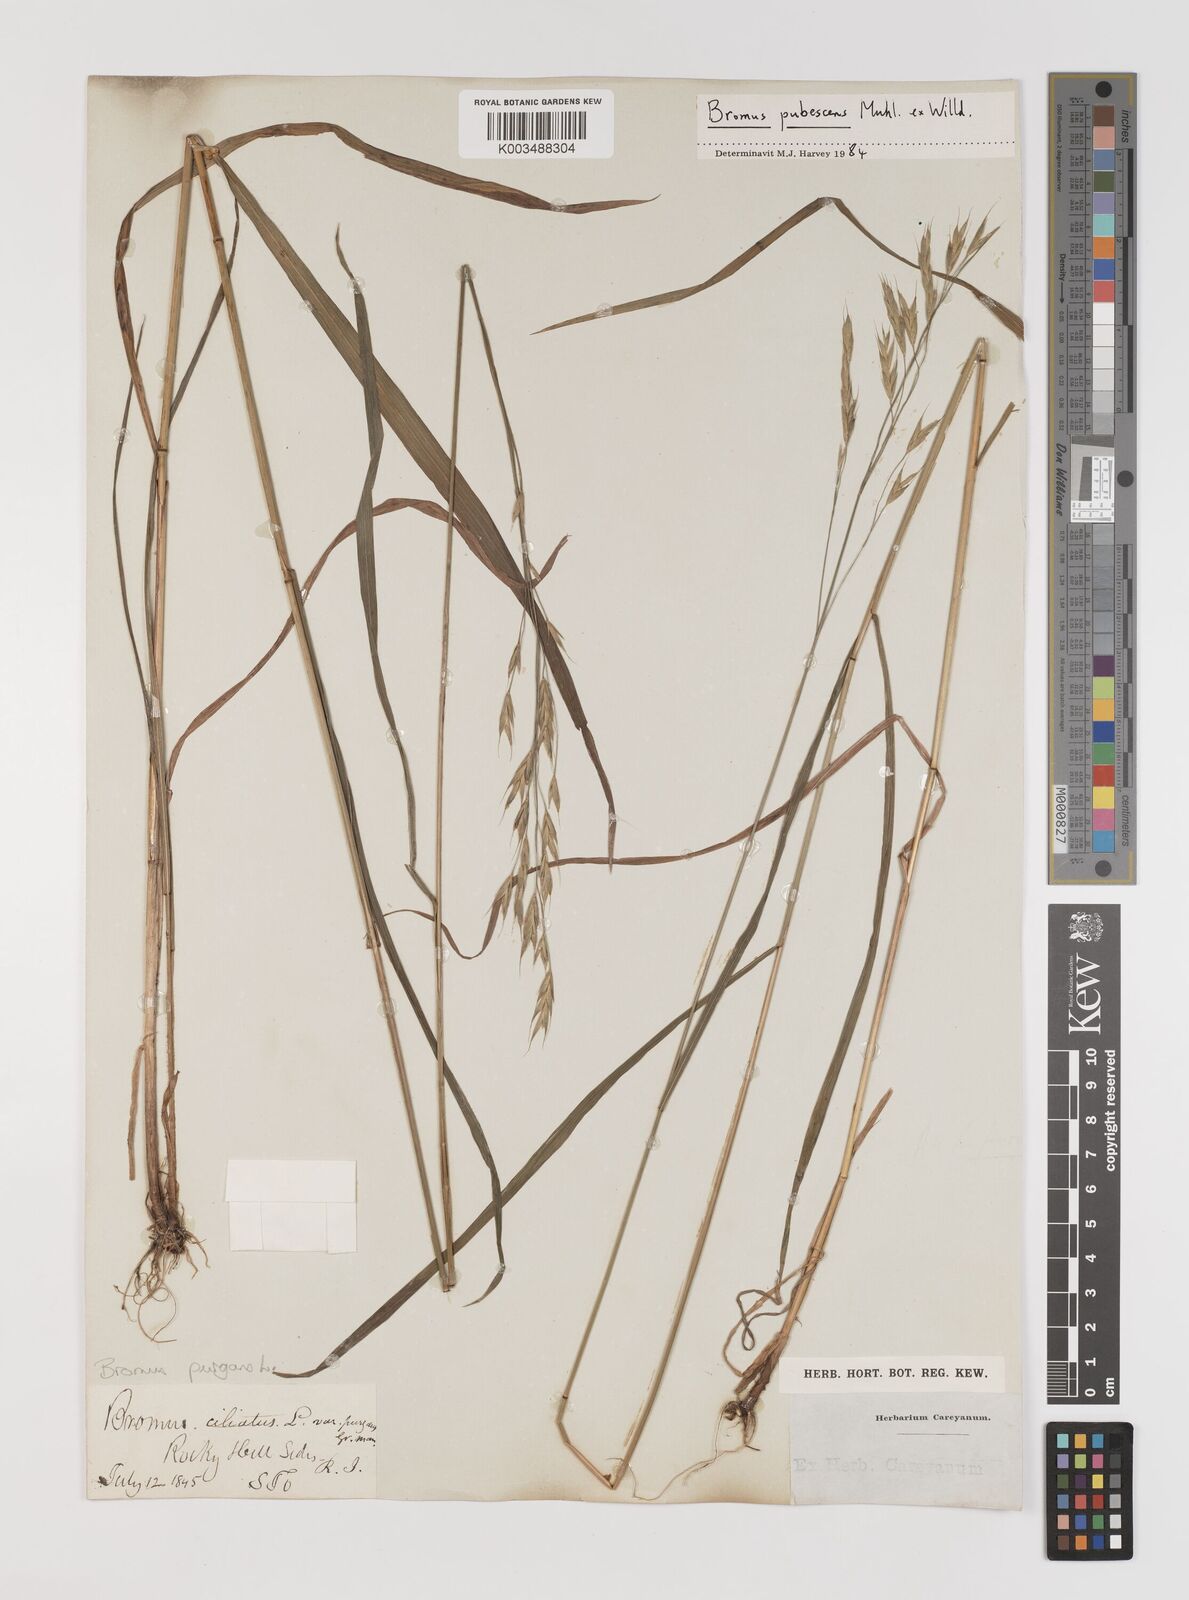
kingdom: Plantae
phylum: Tracheophyta
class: Liliopsida
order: Poales
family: Poaceae
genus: Bromus
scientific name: Bromus pubescens
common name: Hairy wood brome grass
